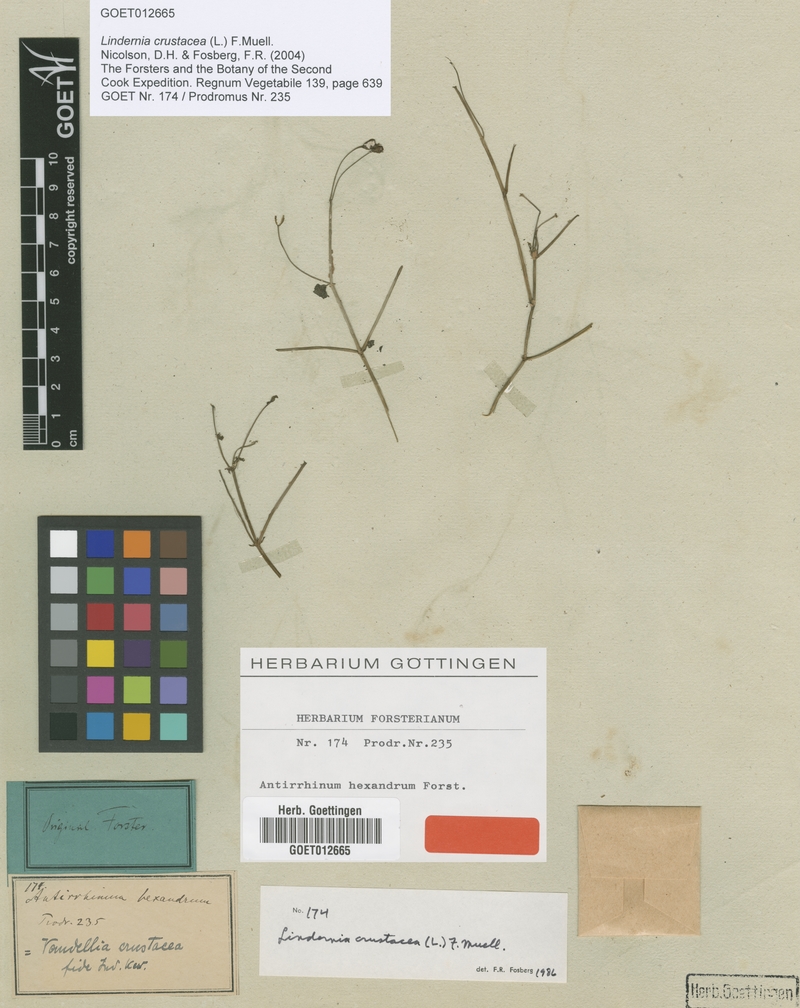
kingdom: Plantae
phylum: Tracheophyta
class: Magnoliopsida
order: Lamiales
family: Linderniaceae
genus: Torenia
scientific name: Torenia crustacea
